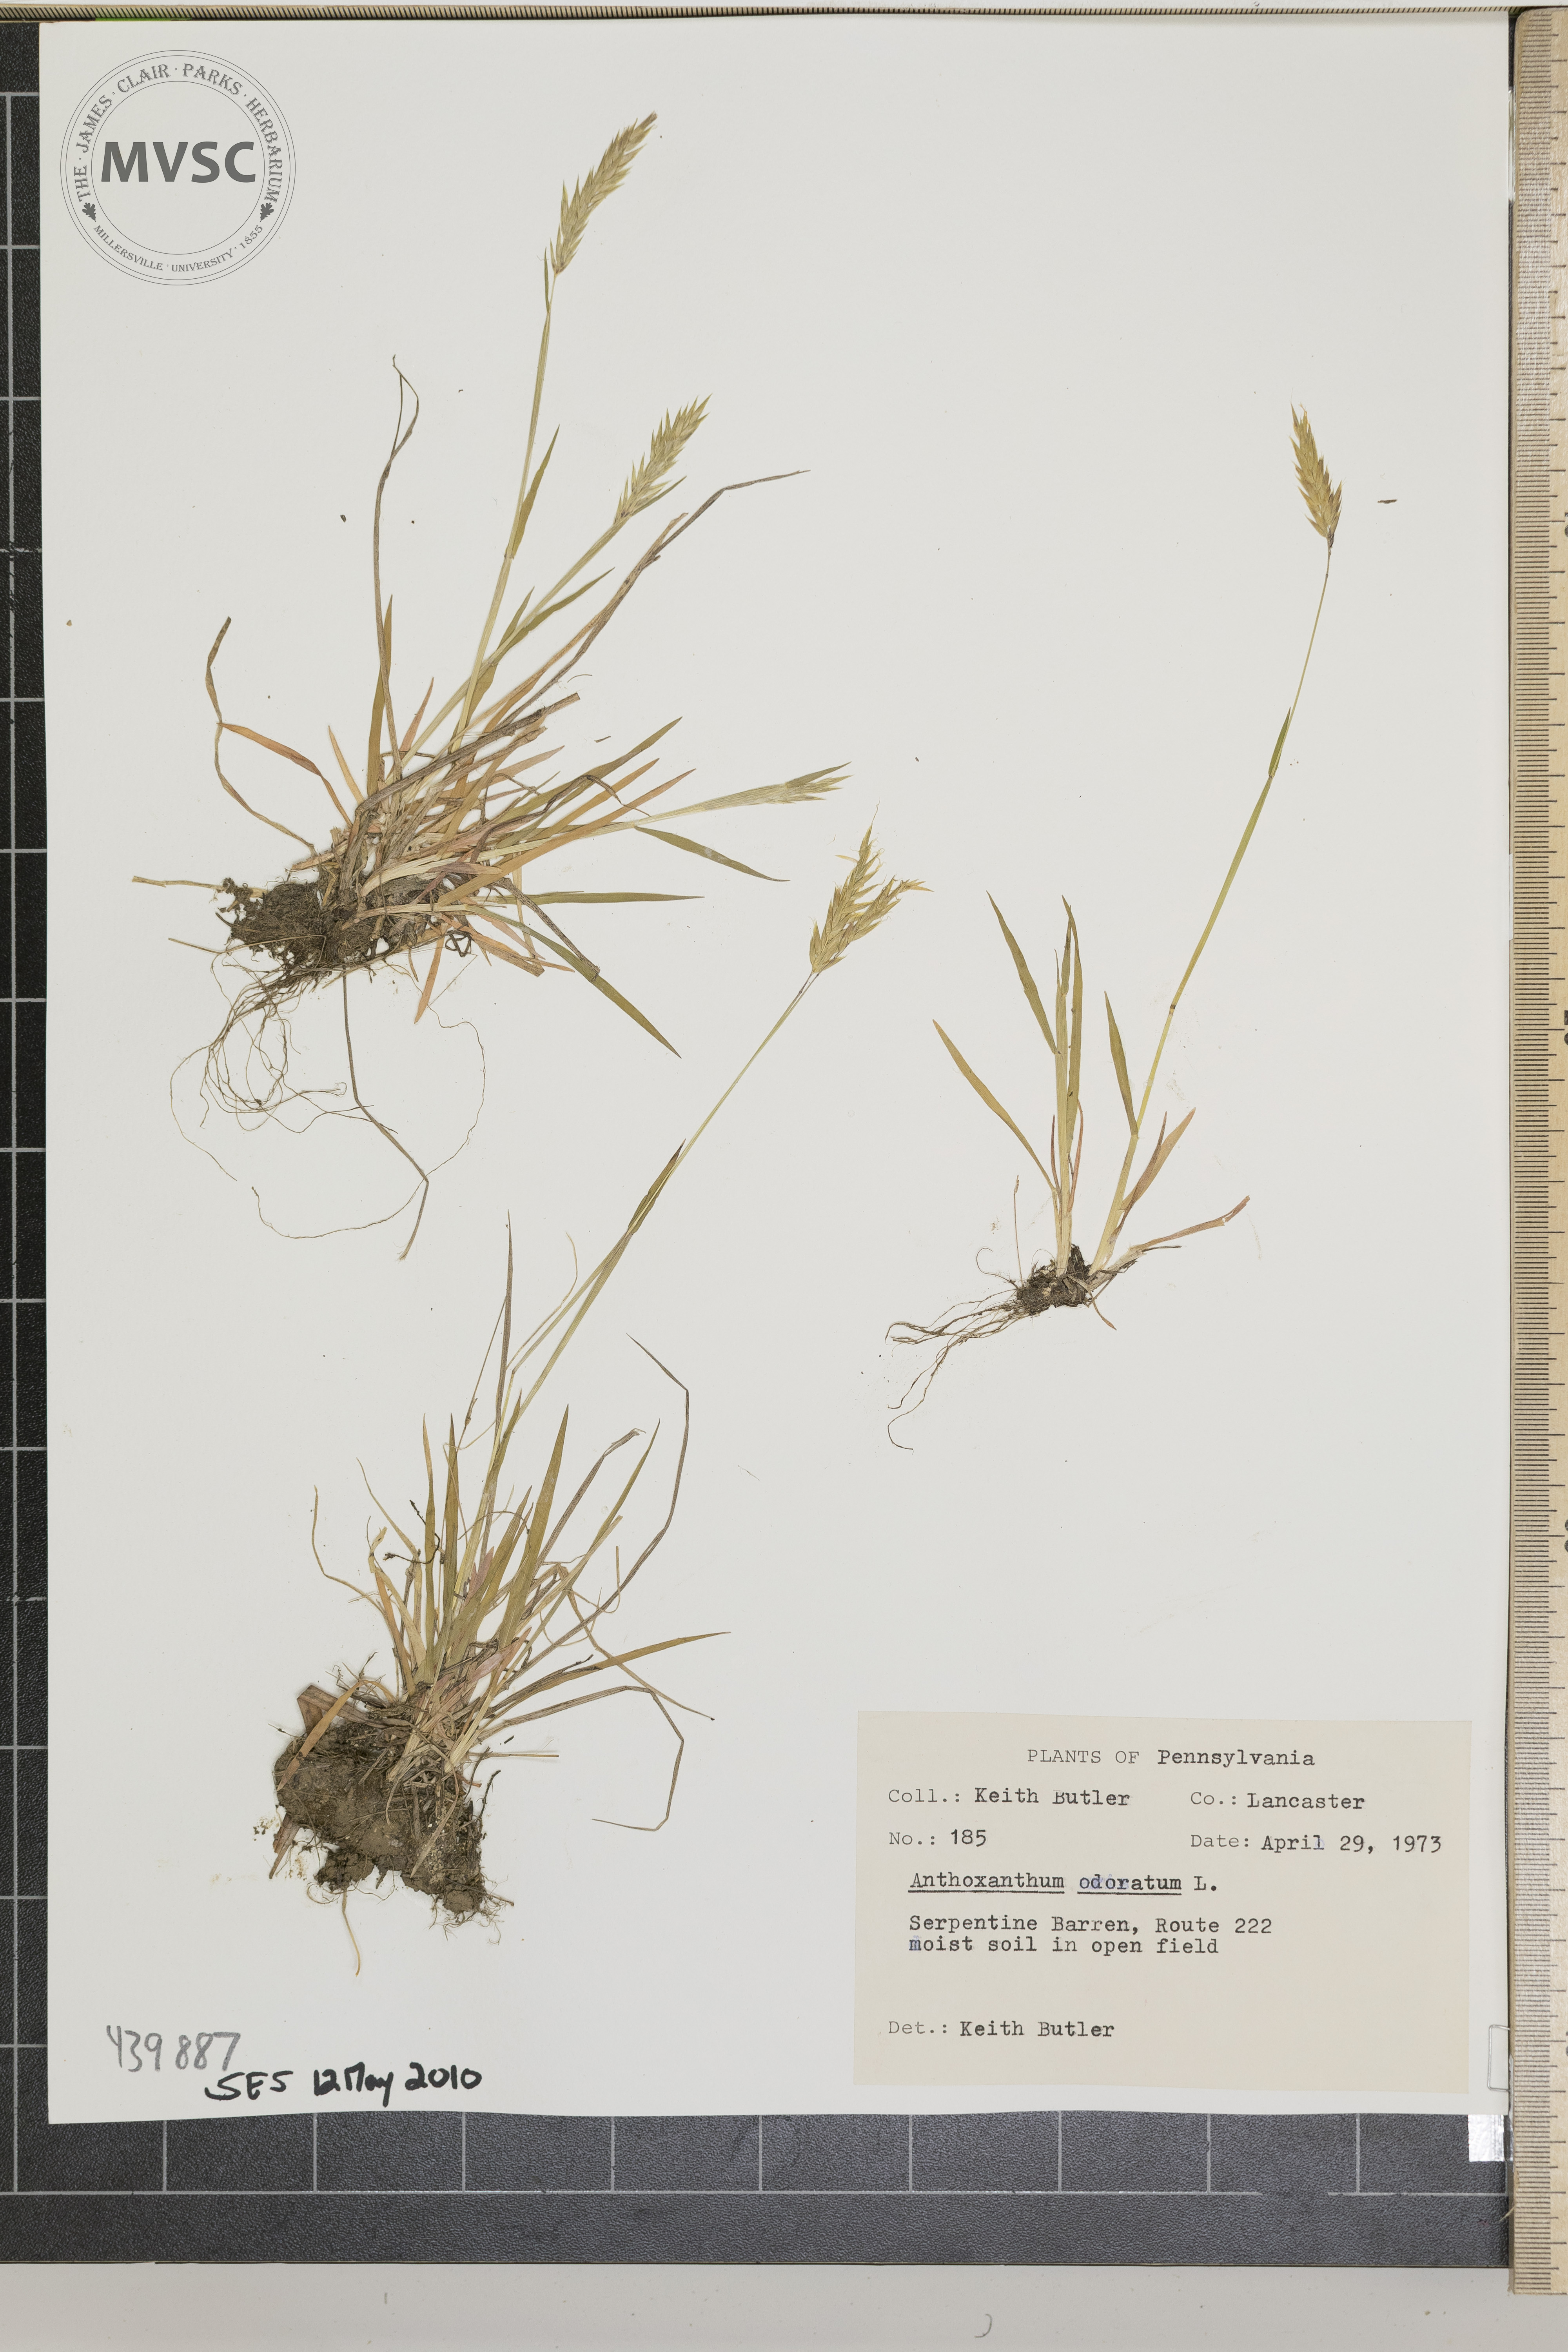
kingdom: Plantae
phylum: Tracheophyta
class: Liliopsida
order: Poales
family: Poaceae
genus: Anthoxanthum
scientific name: Anthoxanthum odoratum
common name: Sweet vernalgrass
